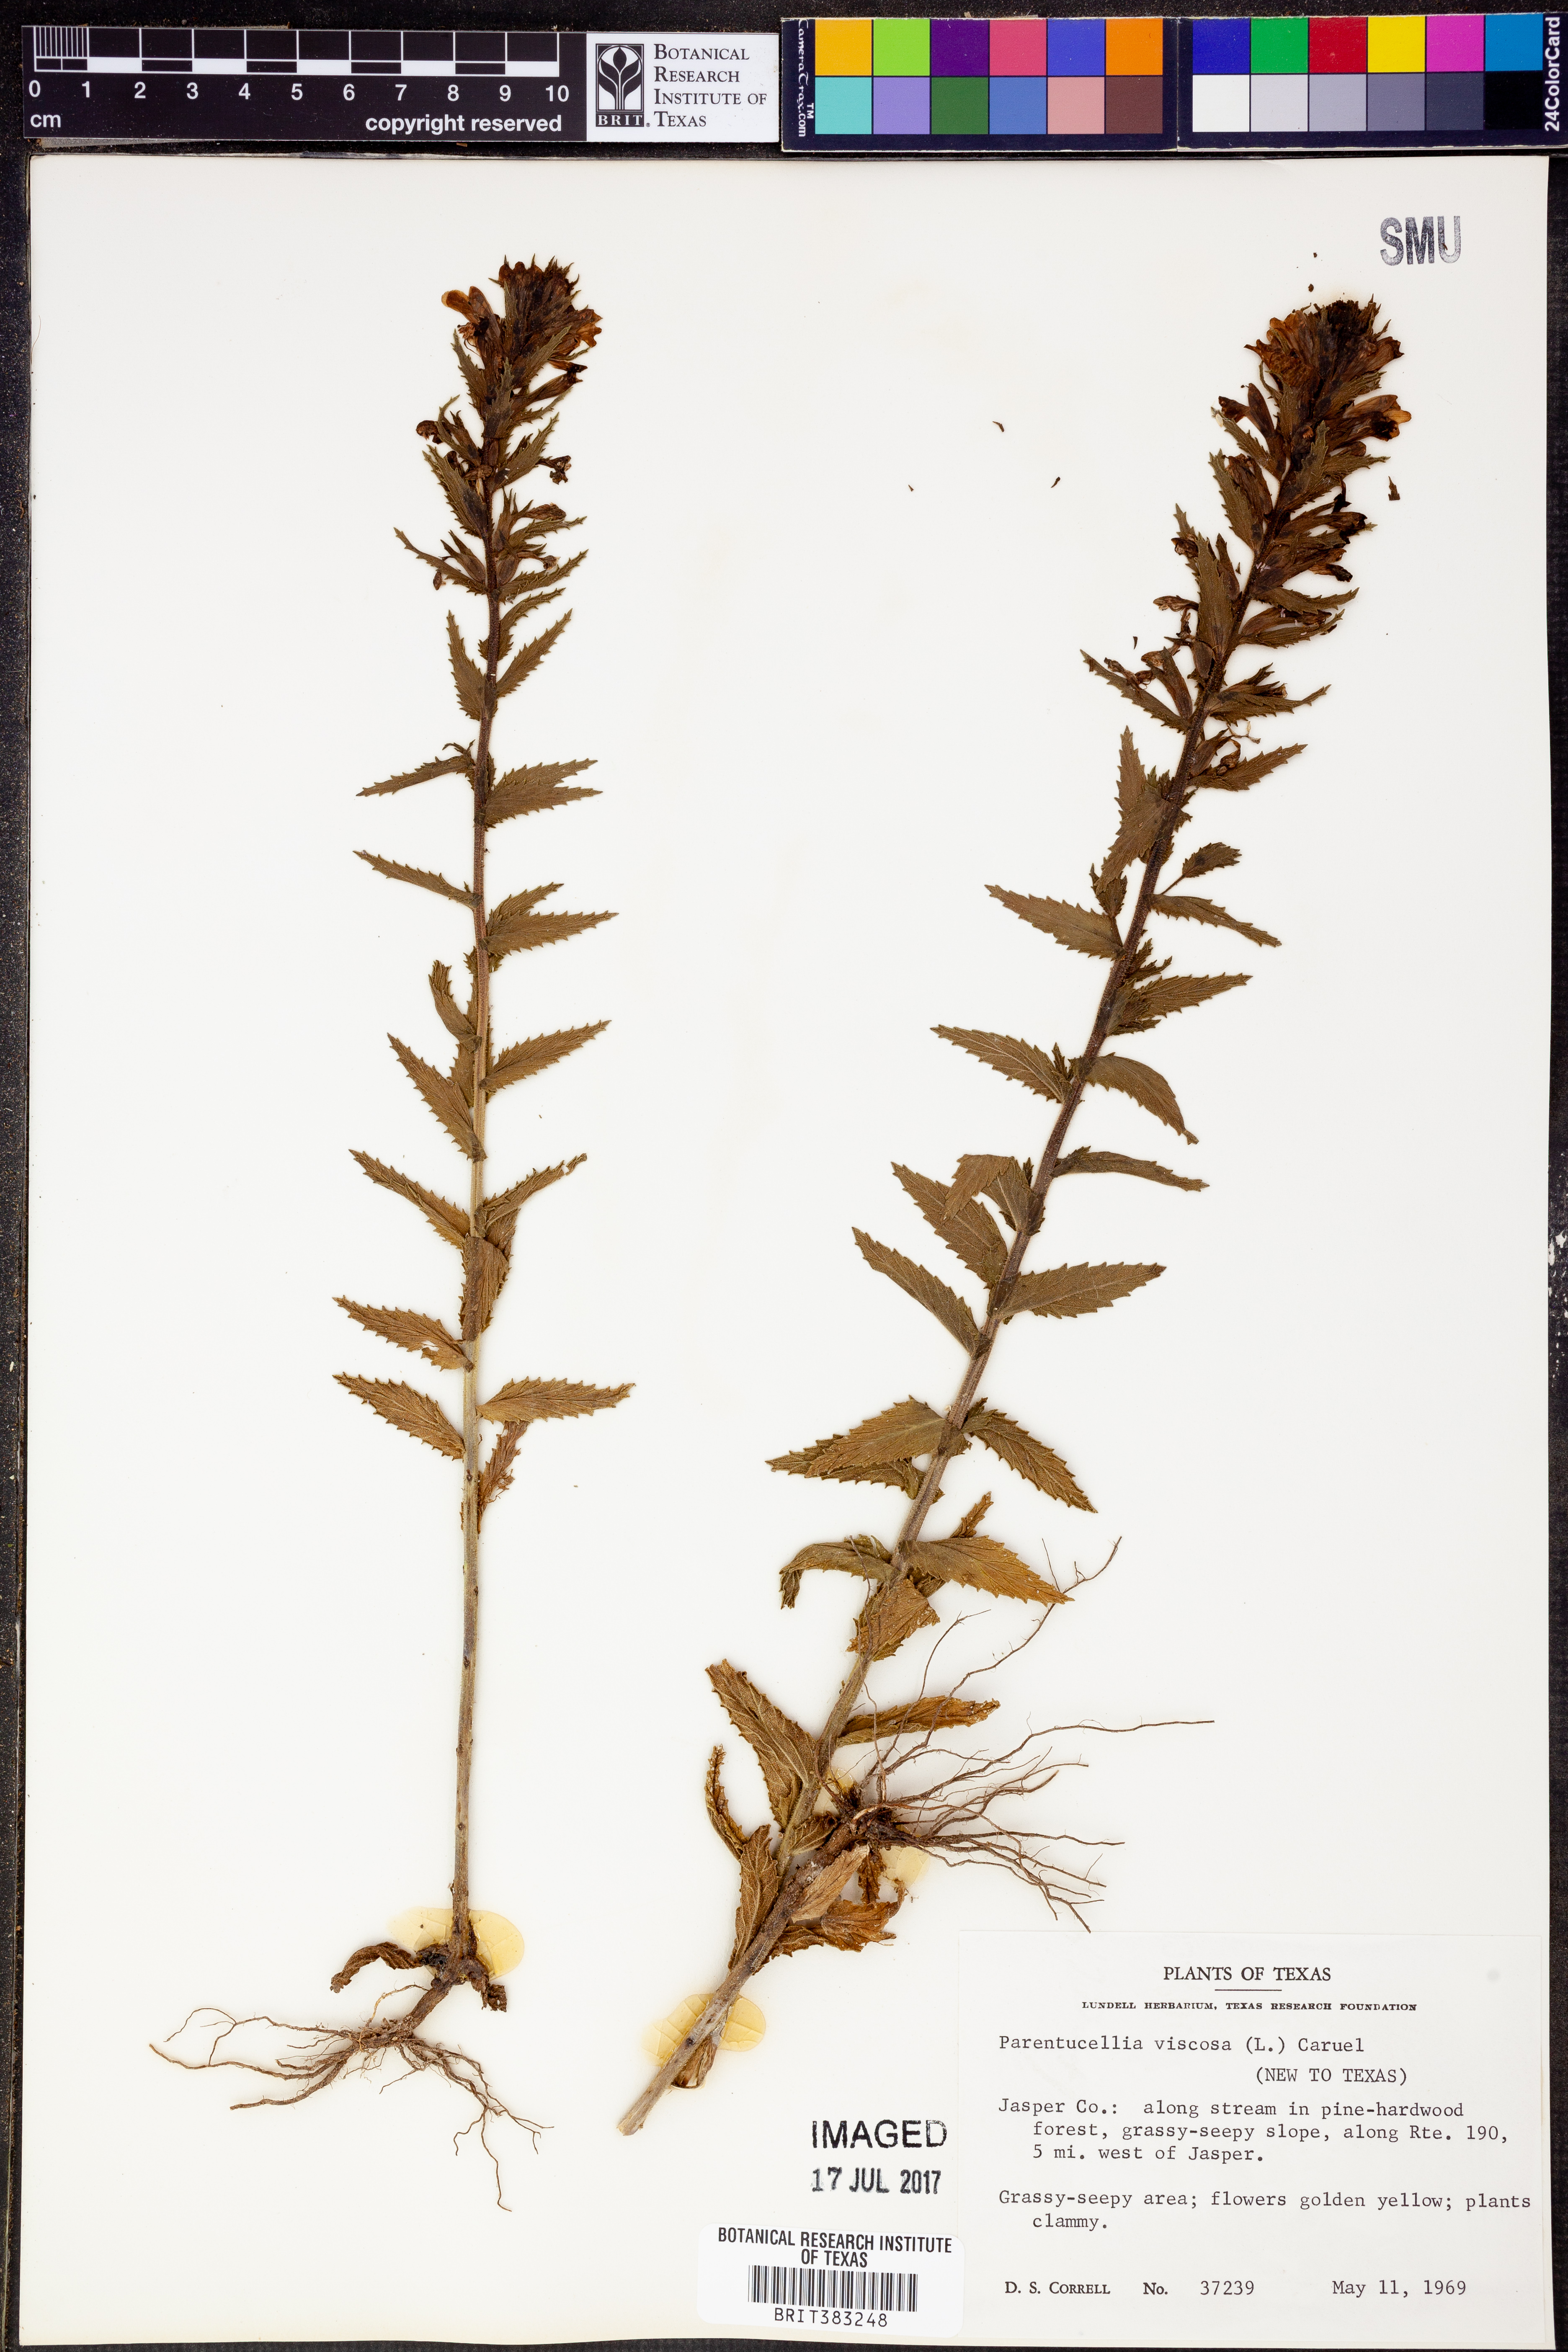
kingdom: Plantae
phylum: Tracheophyta
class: Magnoliopsida
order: Lamiales
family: Orobanchaceae
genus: Bellardia
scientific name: Bellardia viscosa
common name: Sticky parentucellia
